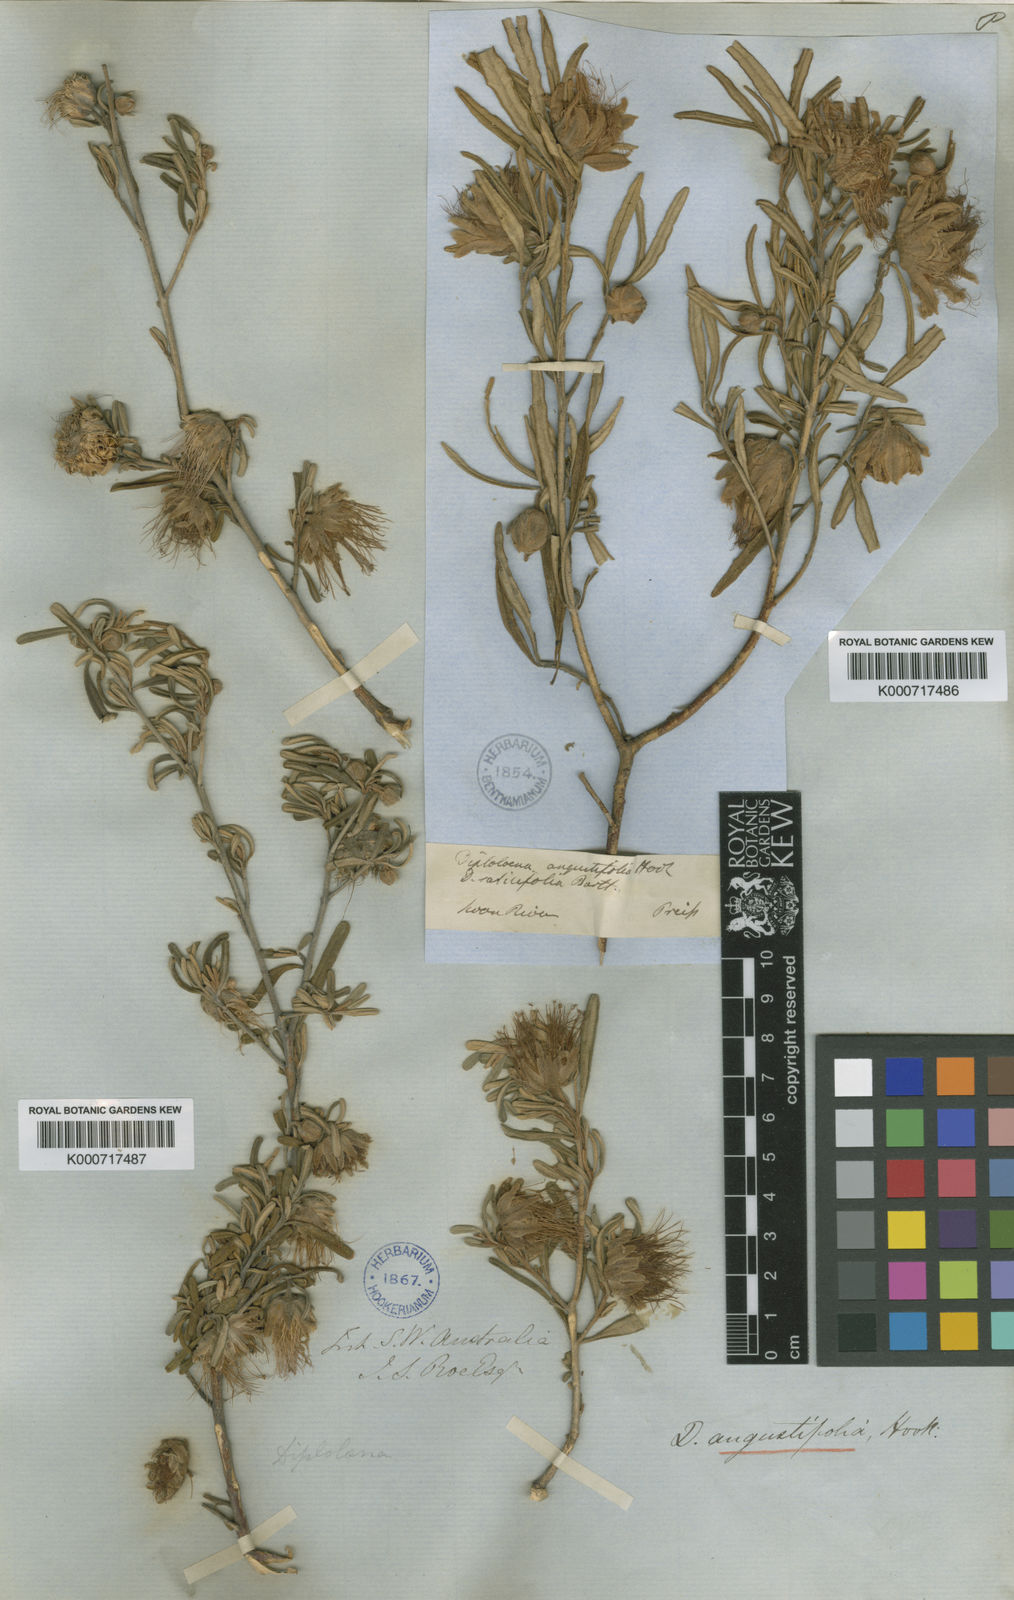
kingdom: Plantae
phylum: Tracheophyta
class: Magnoliopsida
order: Sapindales
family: Rutaceae
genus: Diplolaena
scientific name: Diplolaena angustifolia
